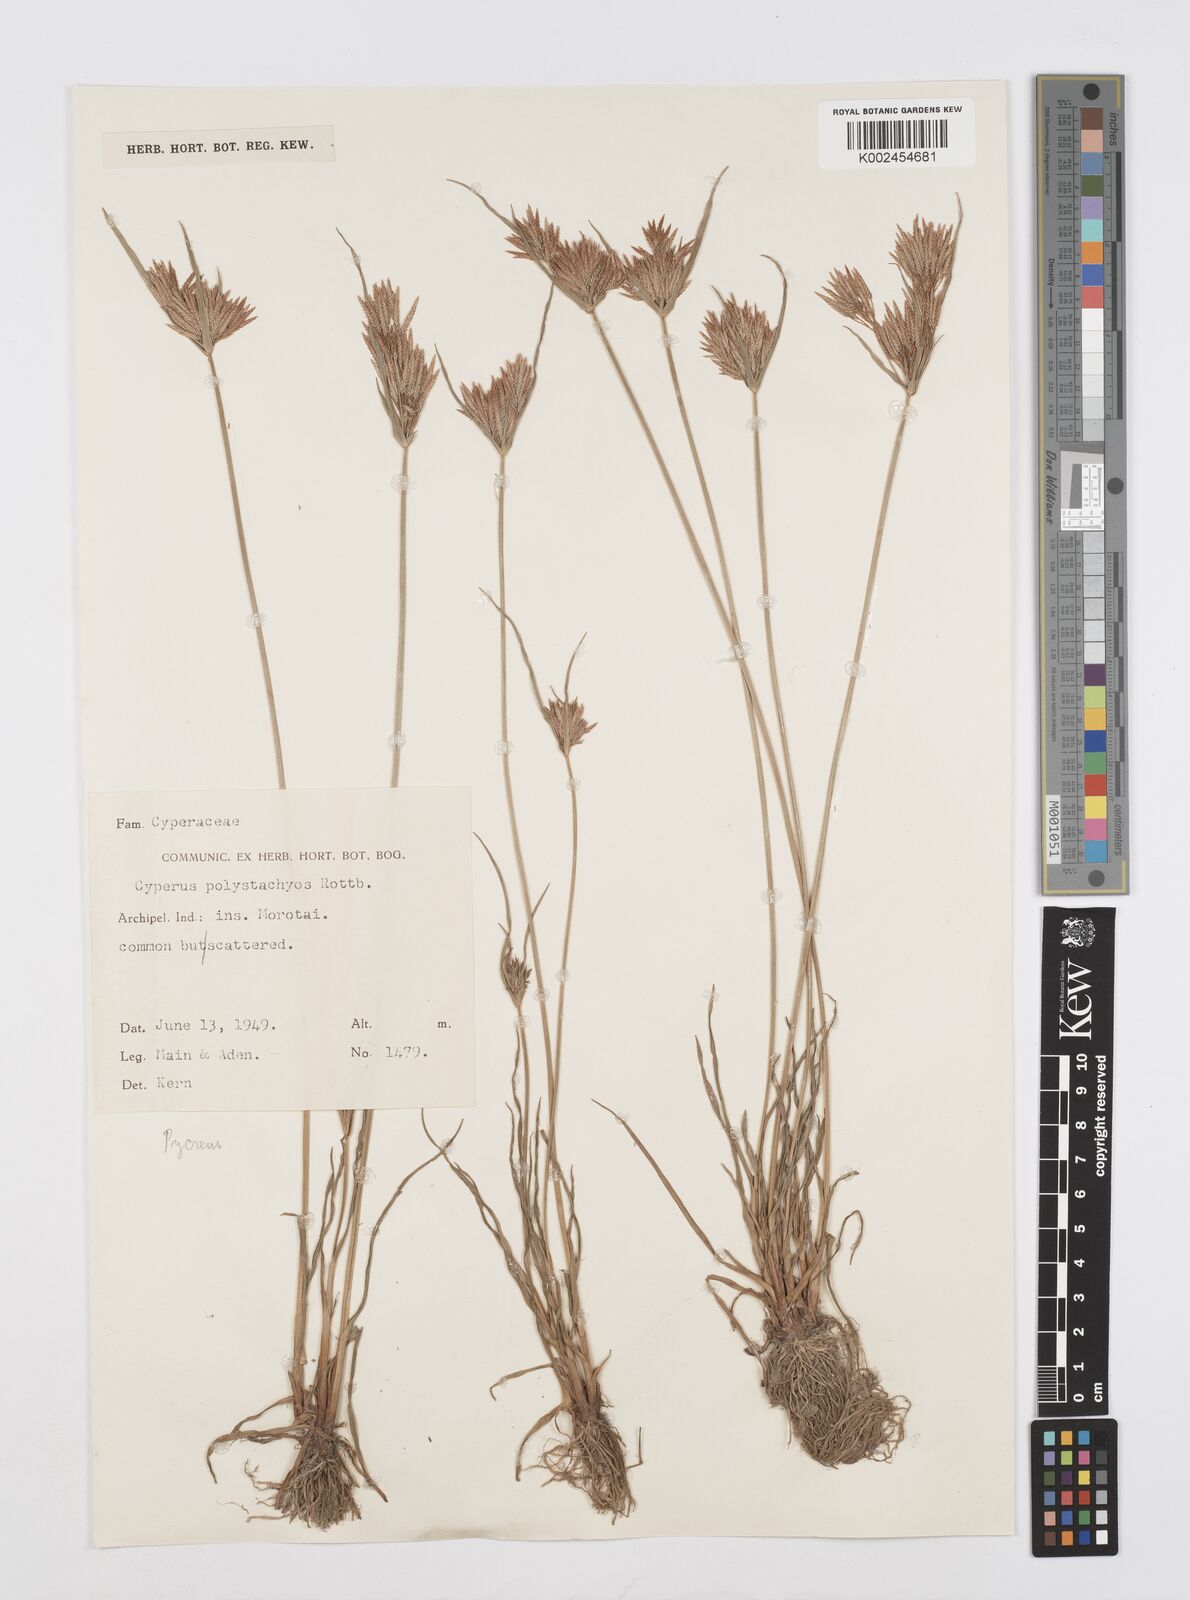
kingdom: Plantae
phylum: Tracheophyta
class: Liliopsida
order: Poales
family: Cyperaceae
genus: Cyperus
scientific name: Cyperus polystachyos
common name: Bunchy flat sedge
